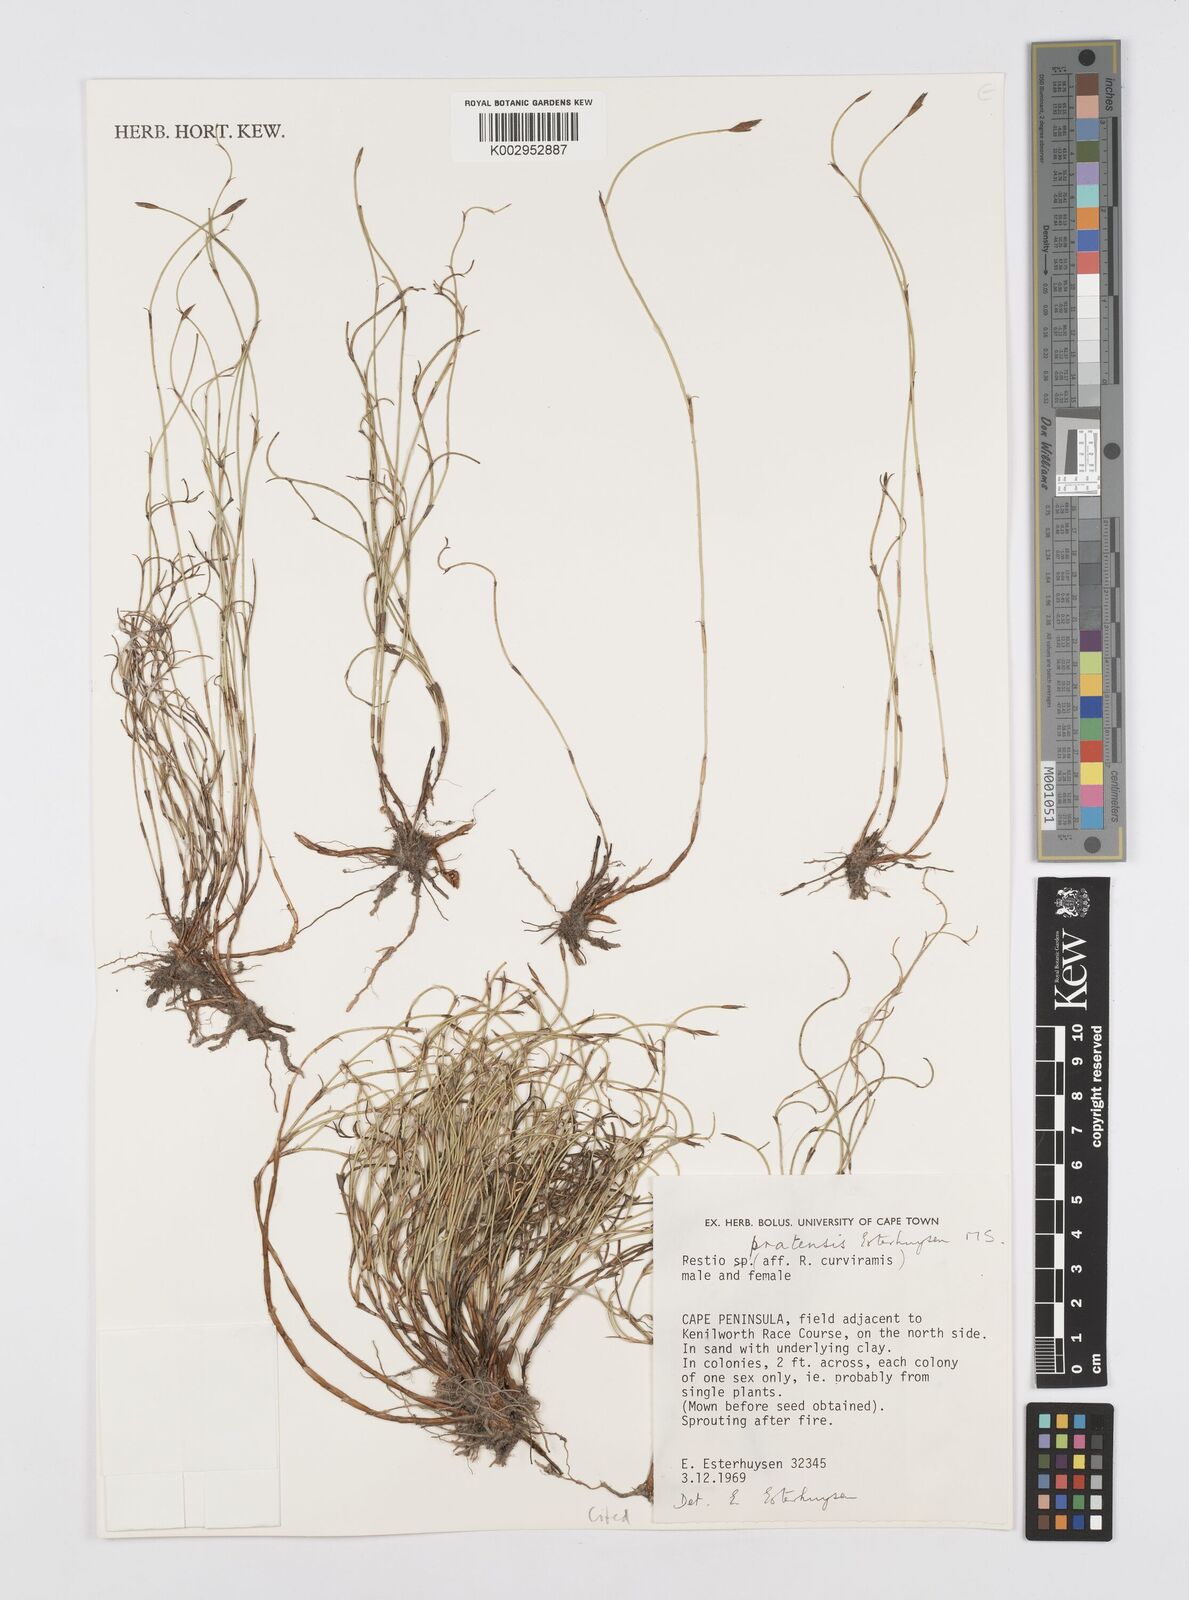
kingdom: Plantae
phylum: Tracheophyta
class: Liliopsida
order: Poales
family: Restionaceae
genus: Restio
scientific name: Restio pratensis
